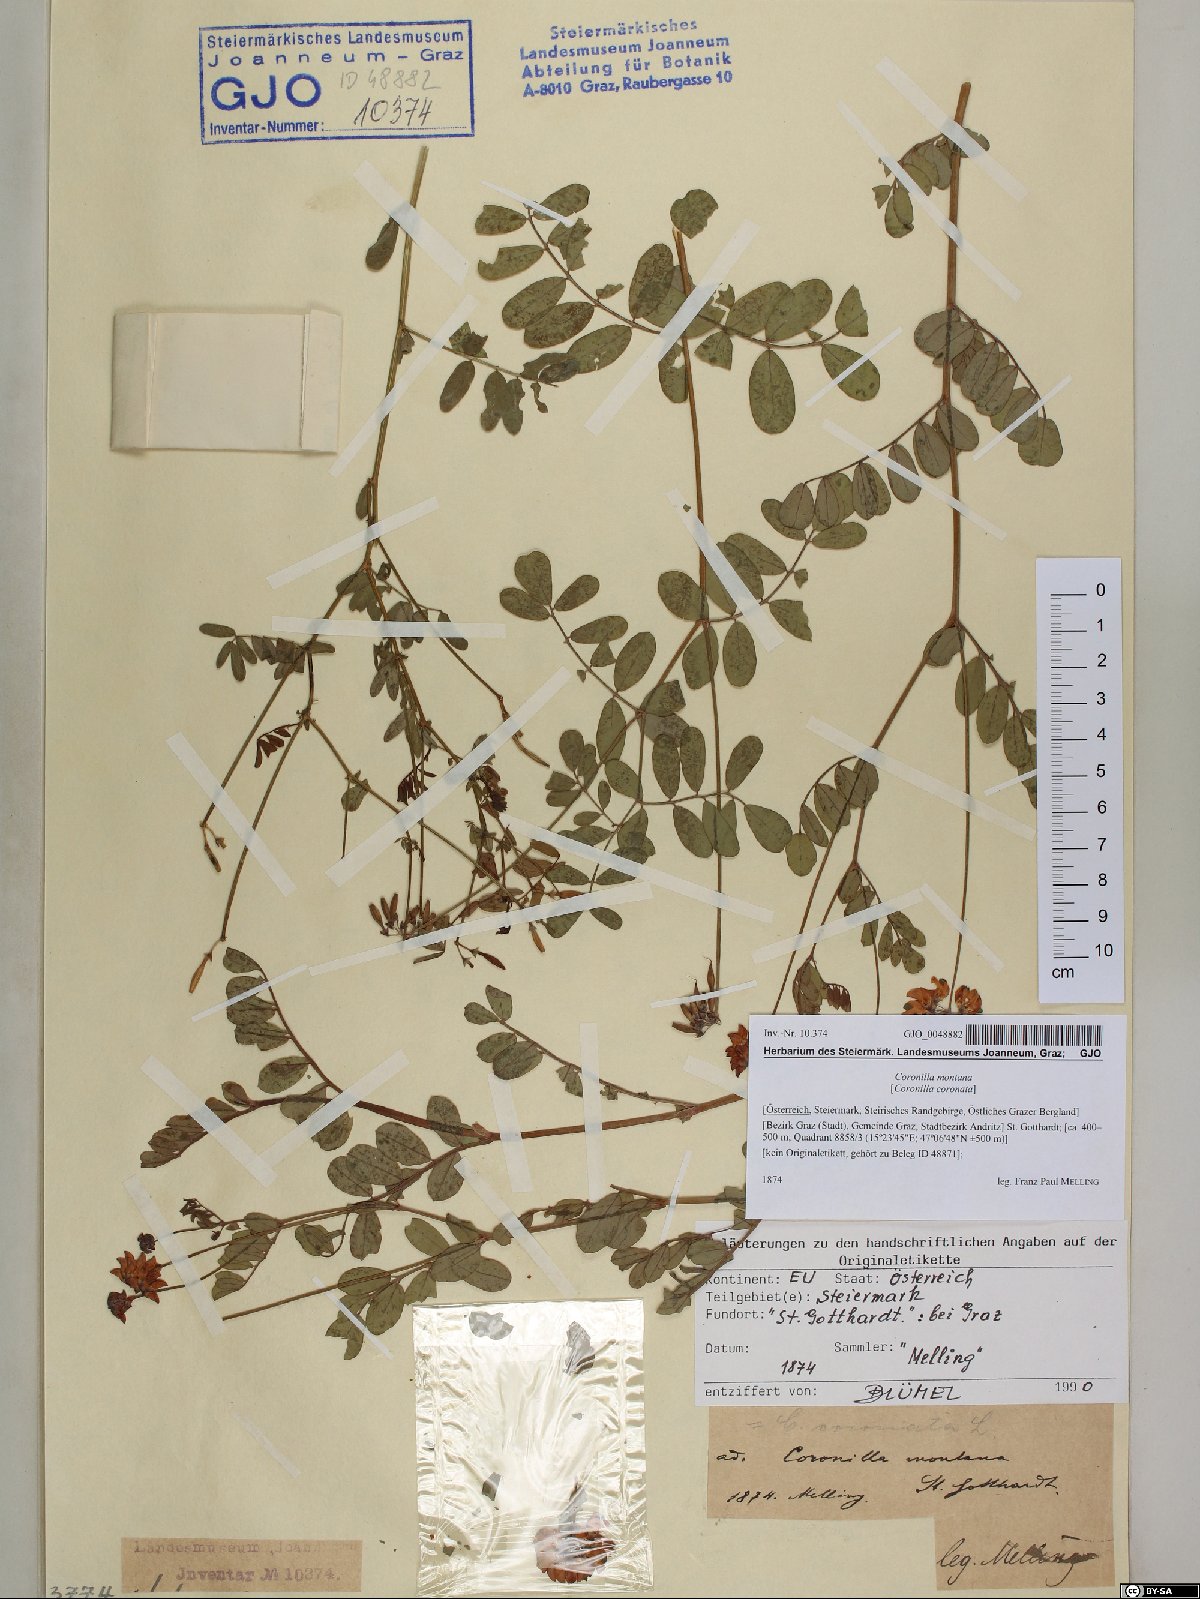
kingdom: Plantae
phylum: Tracheophyta
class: Magnoliopsida
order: Fabales
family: Fabaceae
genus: Coronilla
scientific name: Coronilla coronata
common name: Scorpion-vetch
